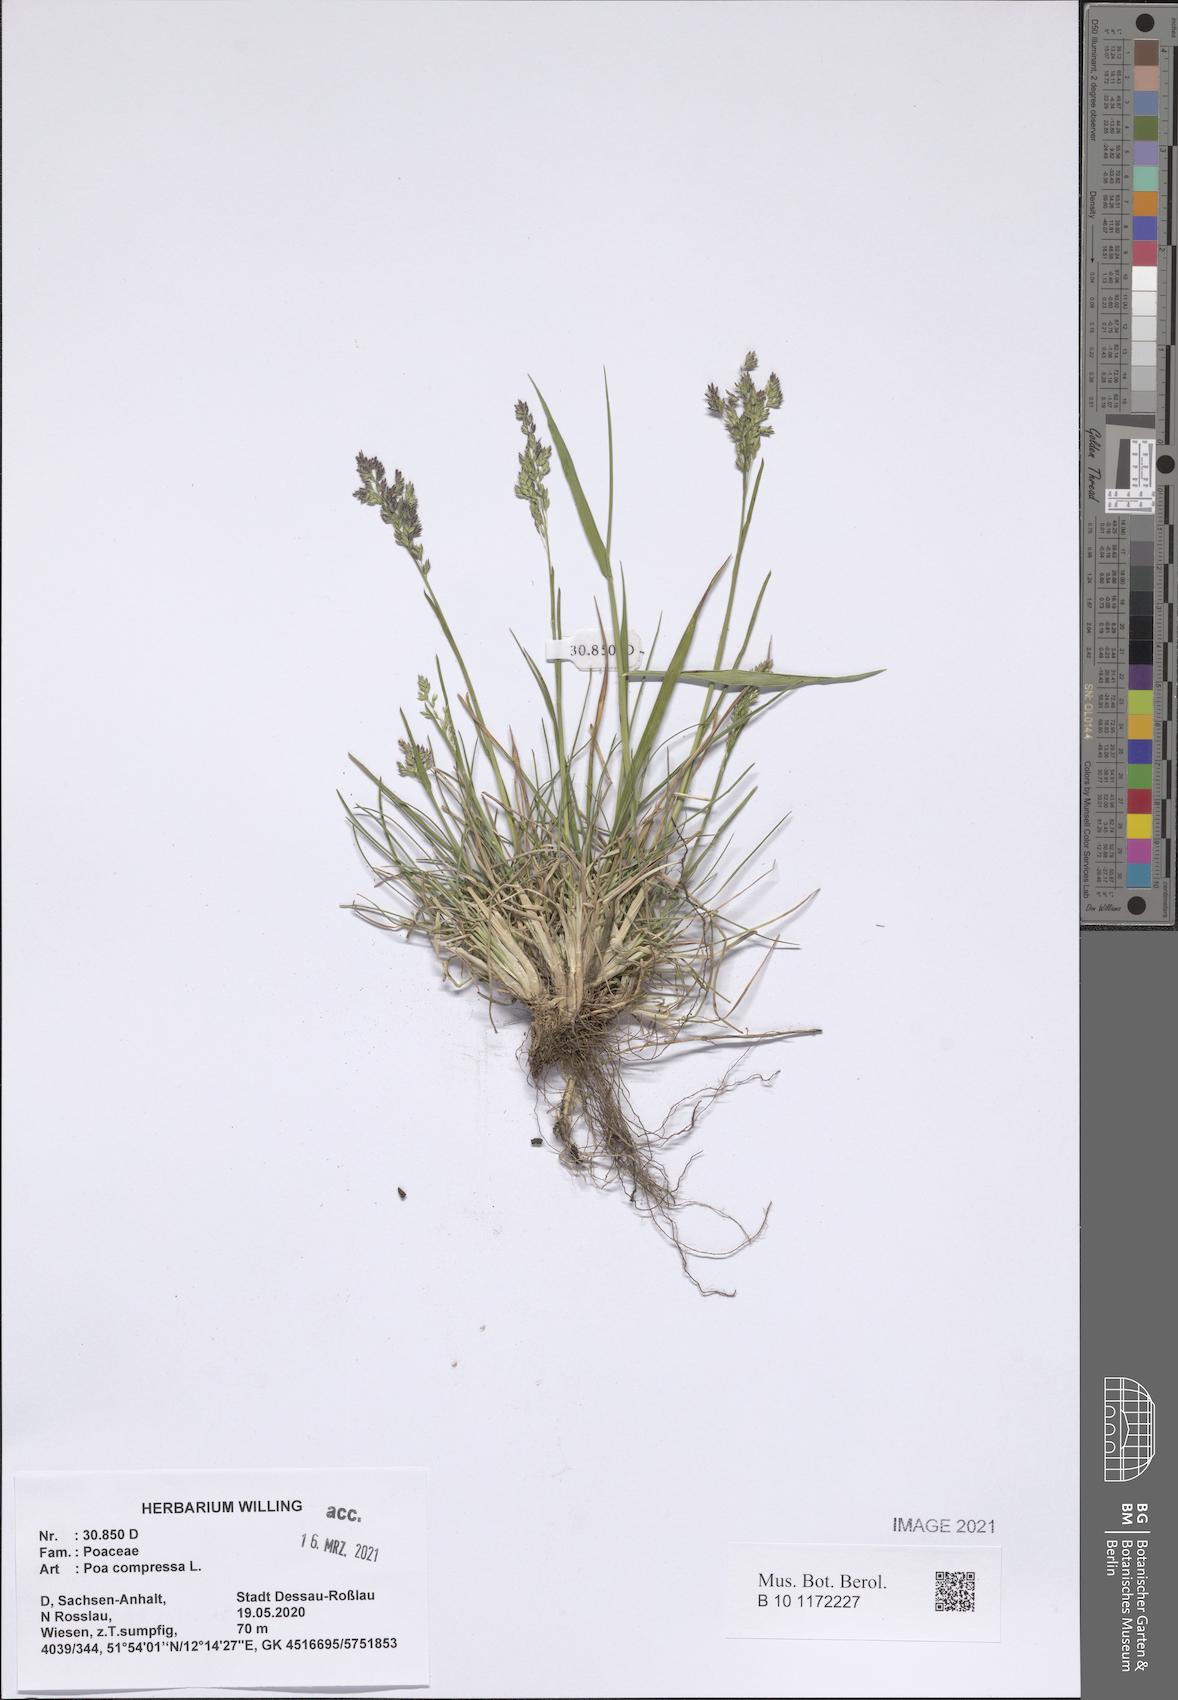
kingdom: Plantae
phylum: Tracheophyta
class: Liliopsida
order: Poales
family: Poaceae
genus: Poa
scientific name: Poa compressa
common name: Canada bluegrass
